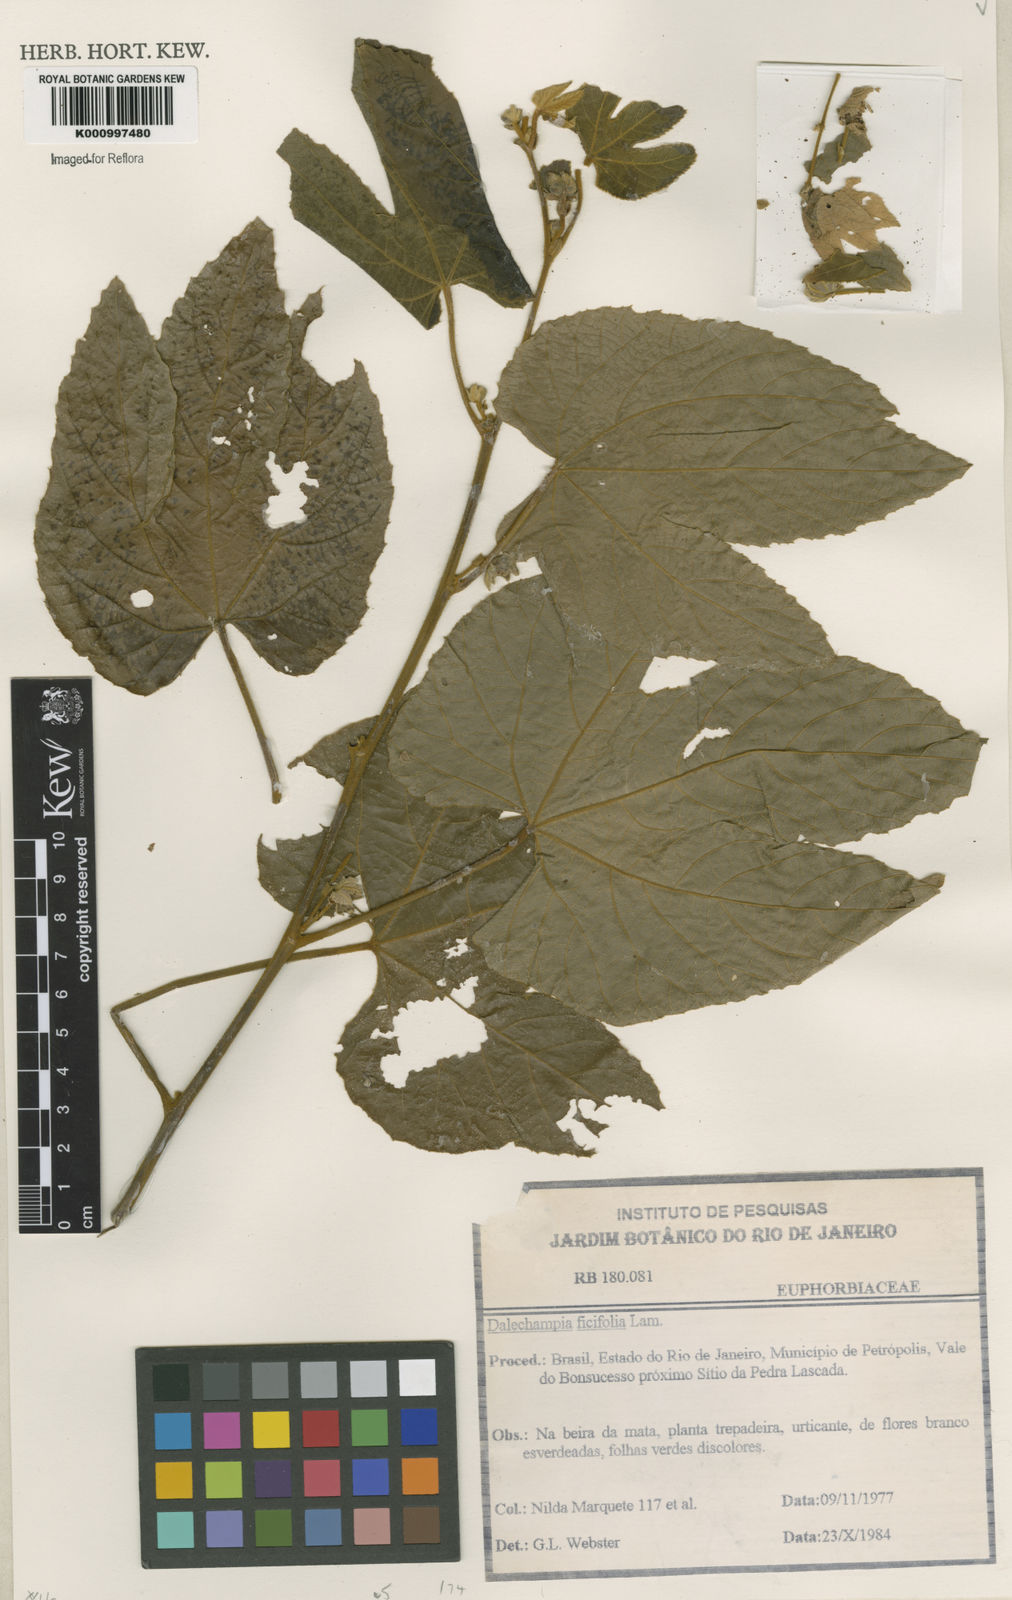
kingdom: Plantae
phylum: Tracheophyta
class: Magnoliopsida
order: Malpighiales
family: Euphorbiaceae
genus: Dalechampia
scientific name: Dalechampia ficifolia
